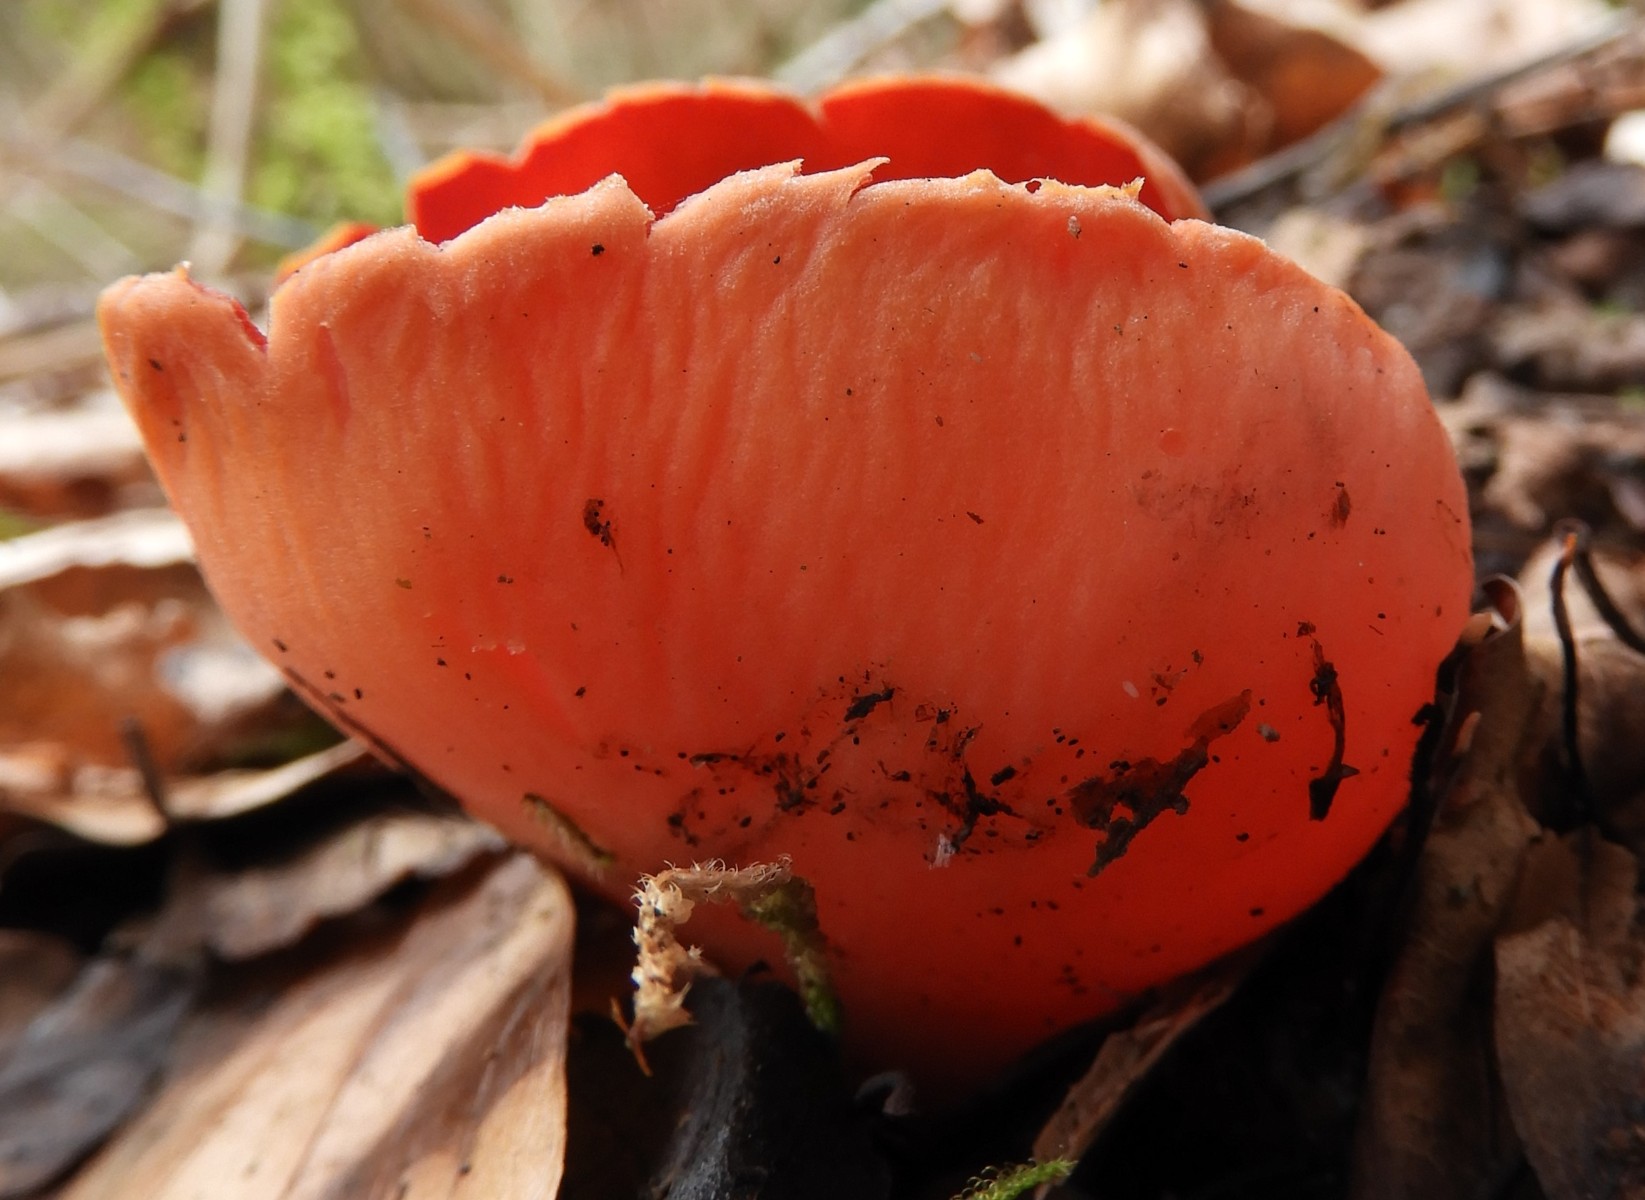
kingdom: Fungi
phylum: Ascomycota
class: Pezizomycetes
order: Pezizales
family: Sarcoscyphaceae
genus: Sarcoscypha
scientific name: Sarcoscypha austriaca
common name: krølhåret pragtbæger
